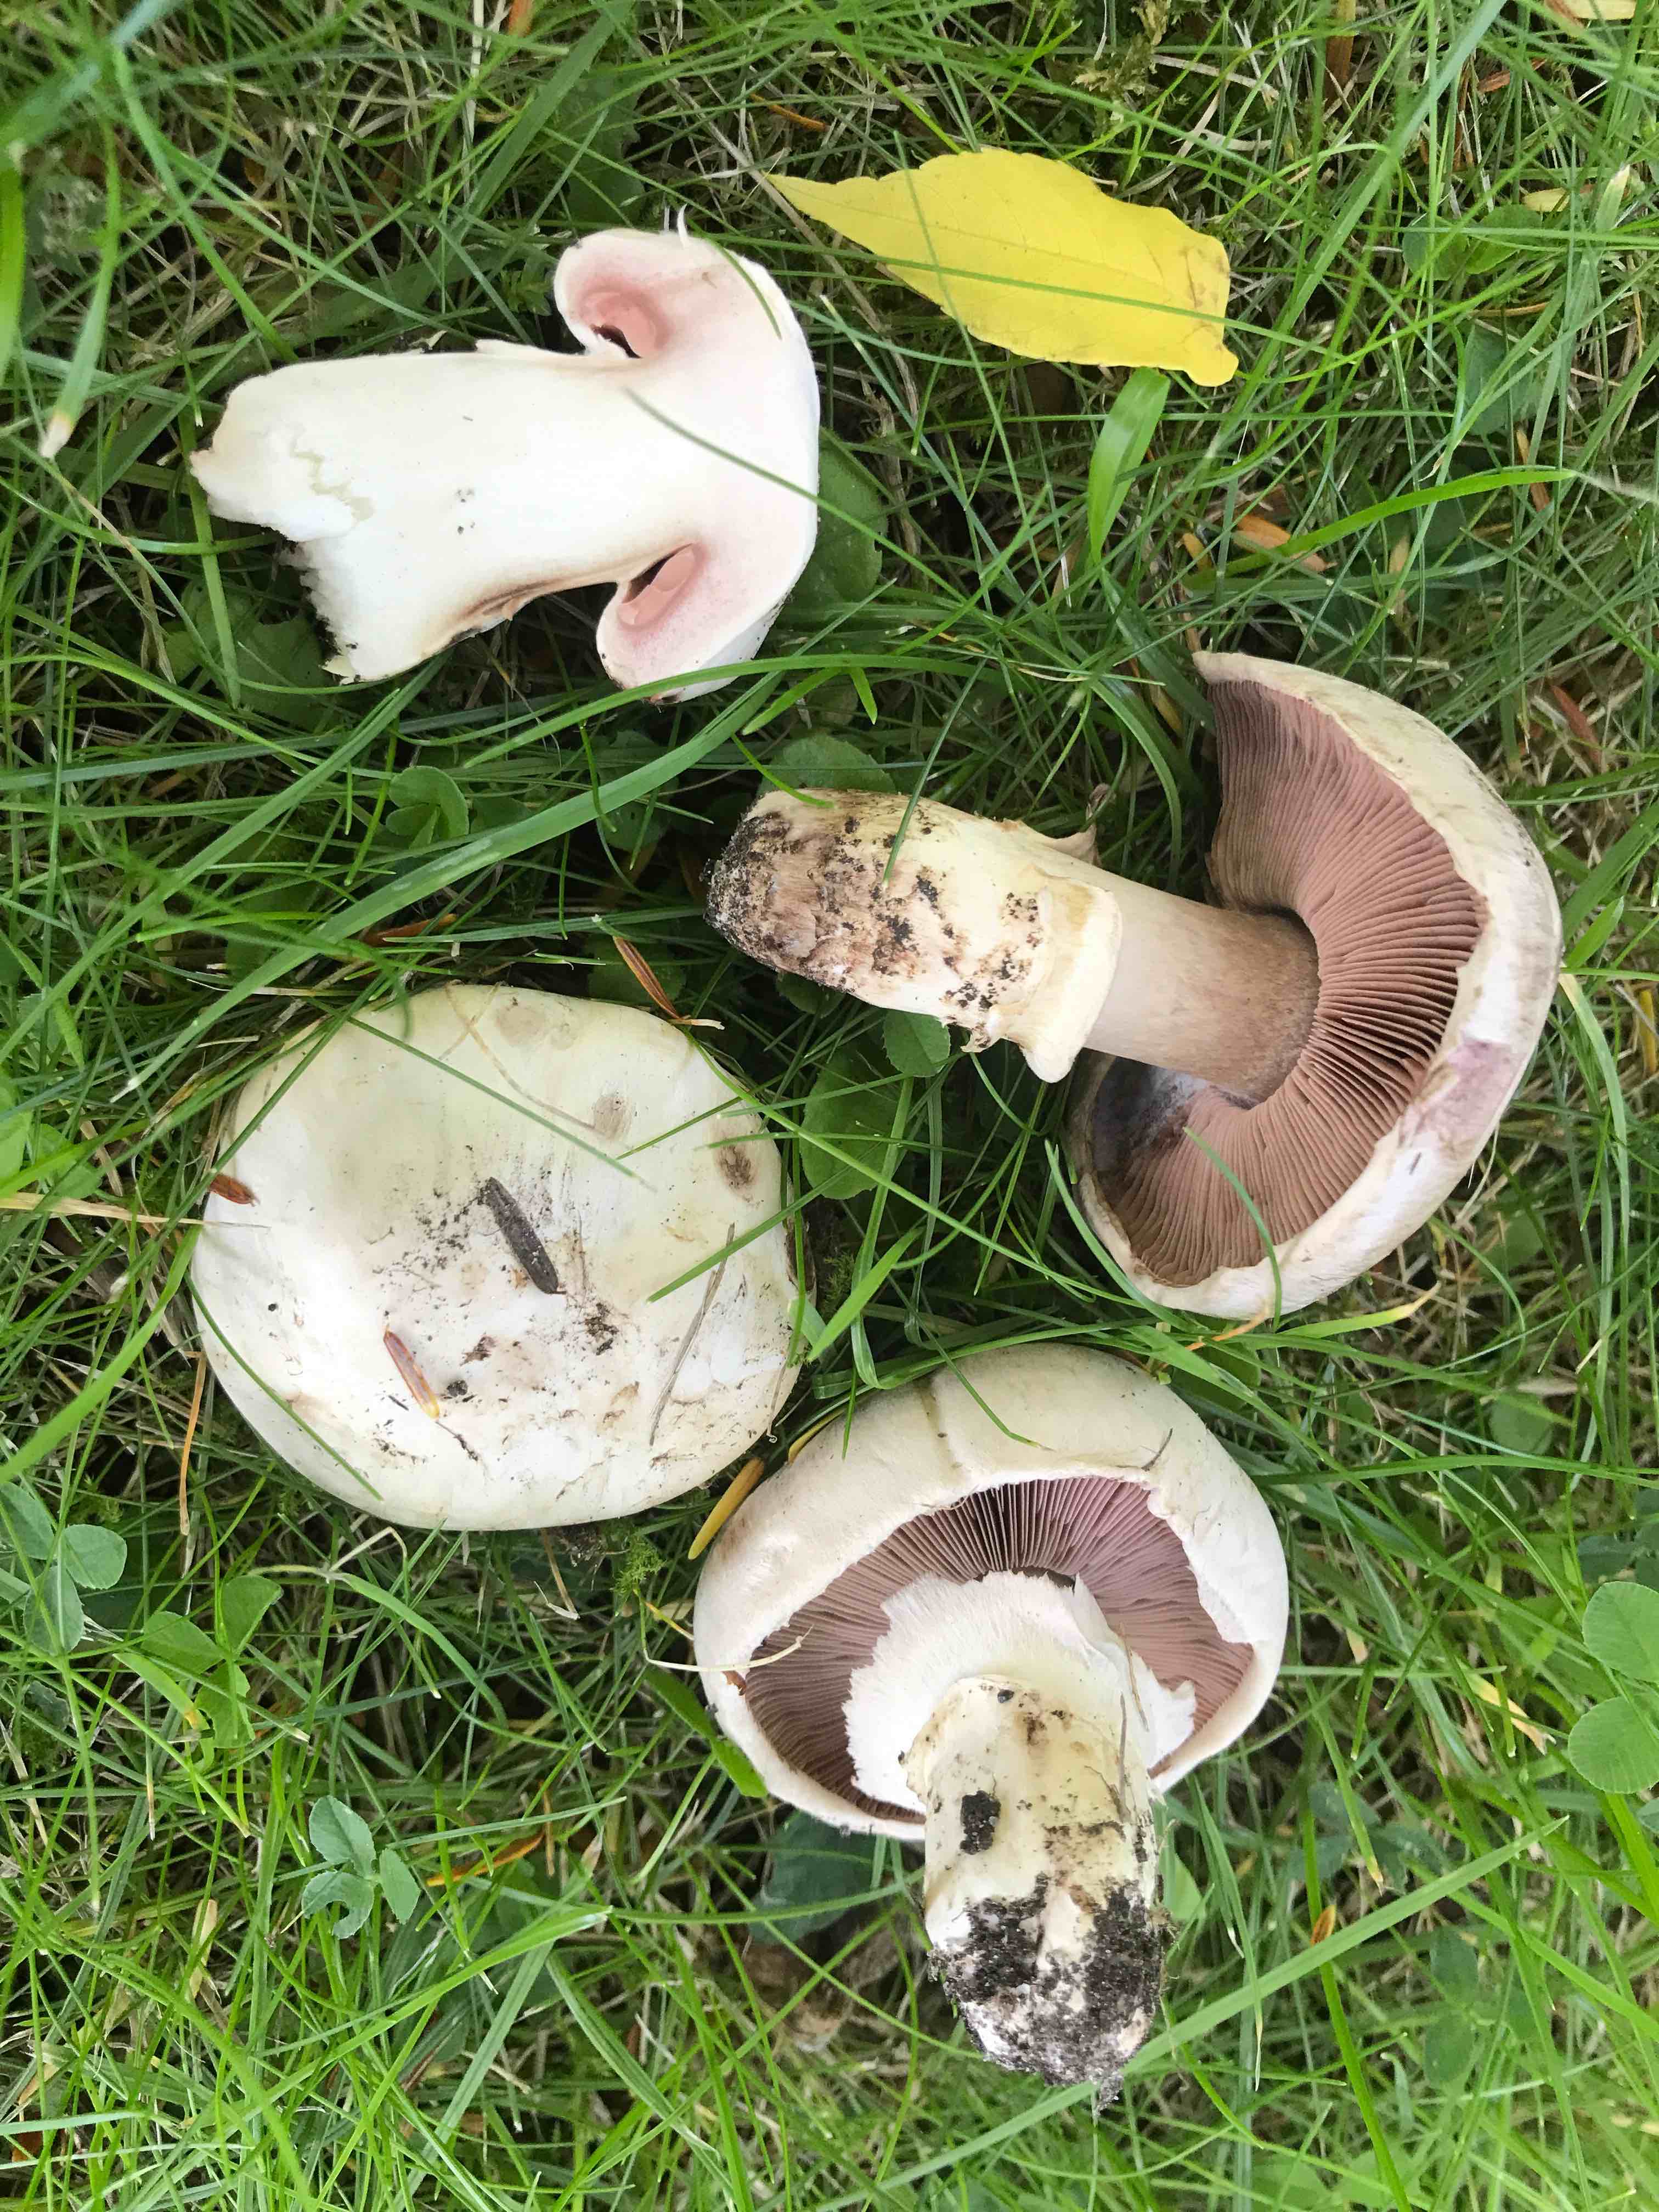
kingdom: Fungi
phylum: Basidiomycota
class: Agaricomycetes
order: Agaricales
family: Agaricaceae
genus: Agaricus
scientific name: Agaricus bitorquis
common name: vej-champignon
